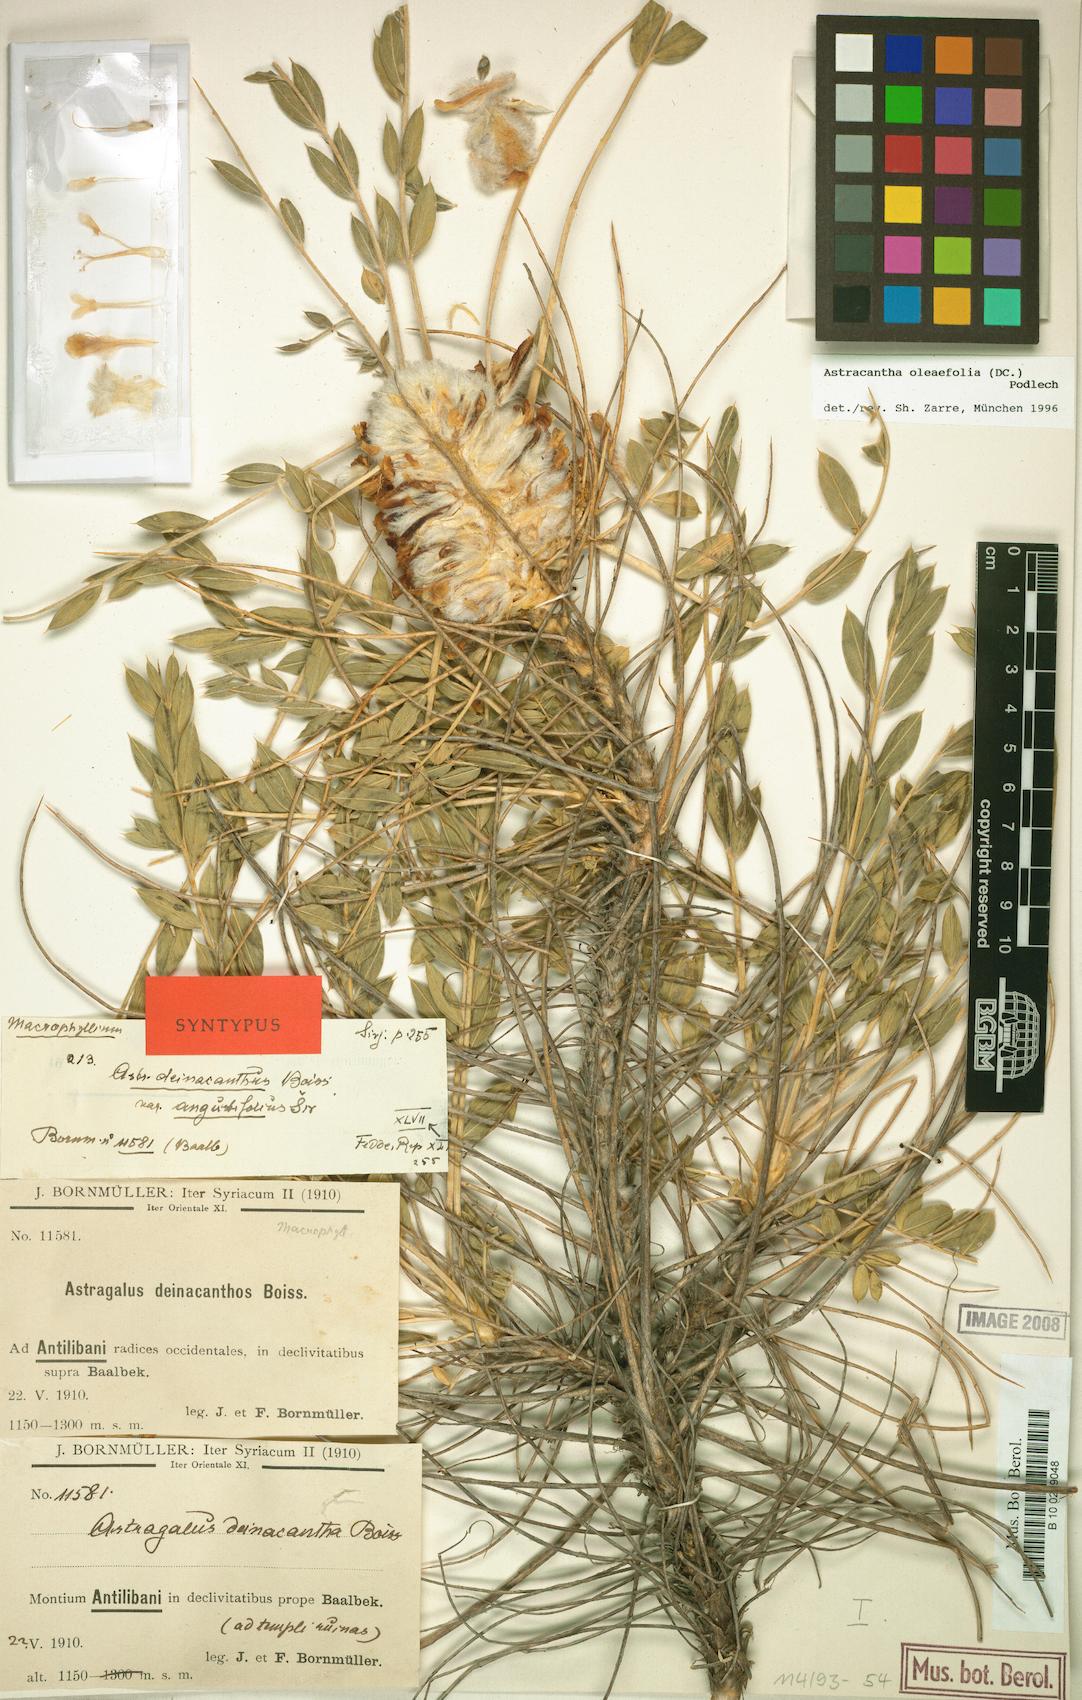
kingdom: Plantae
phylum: Tracheophyta
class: Magnoliopsida
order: Fabales
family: Fabaceae
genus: Astragalus
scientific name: Astragalus oleifolius
